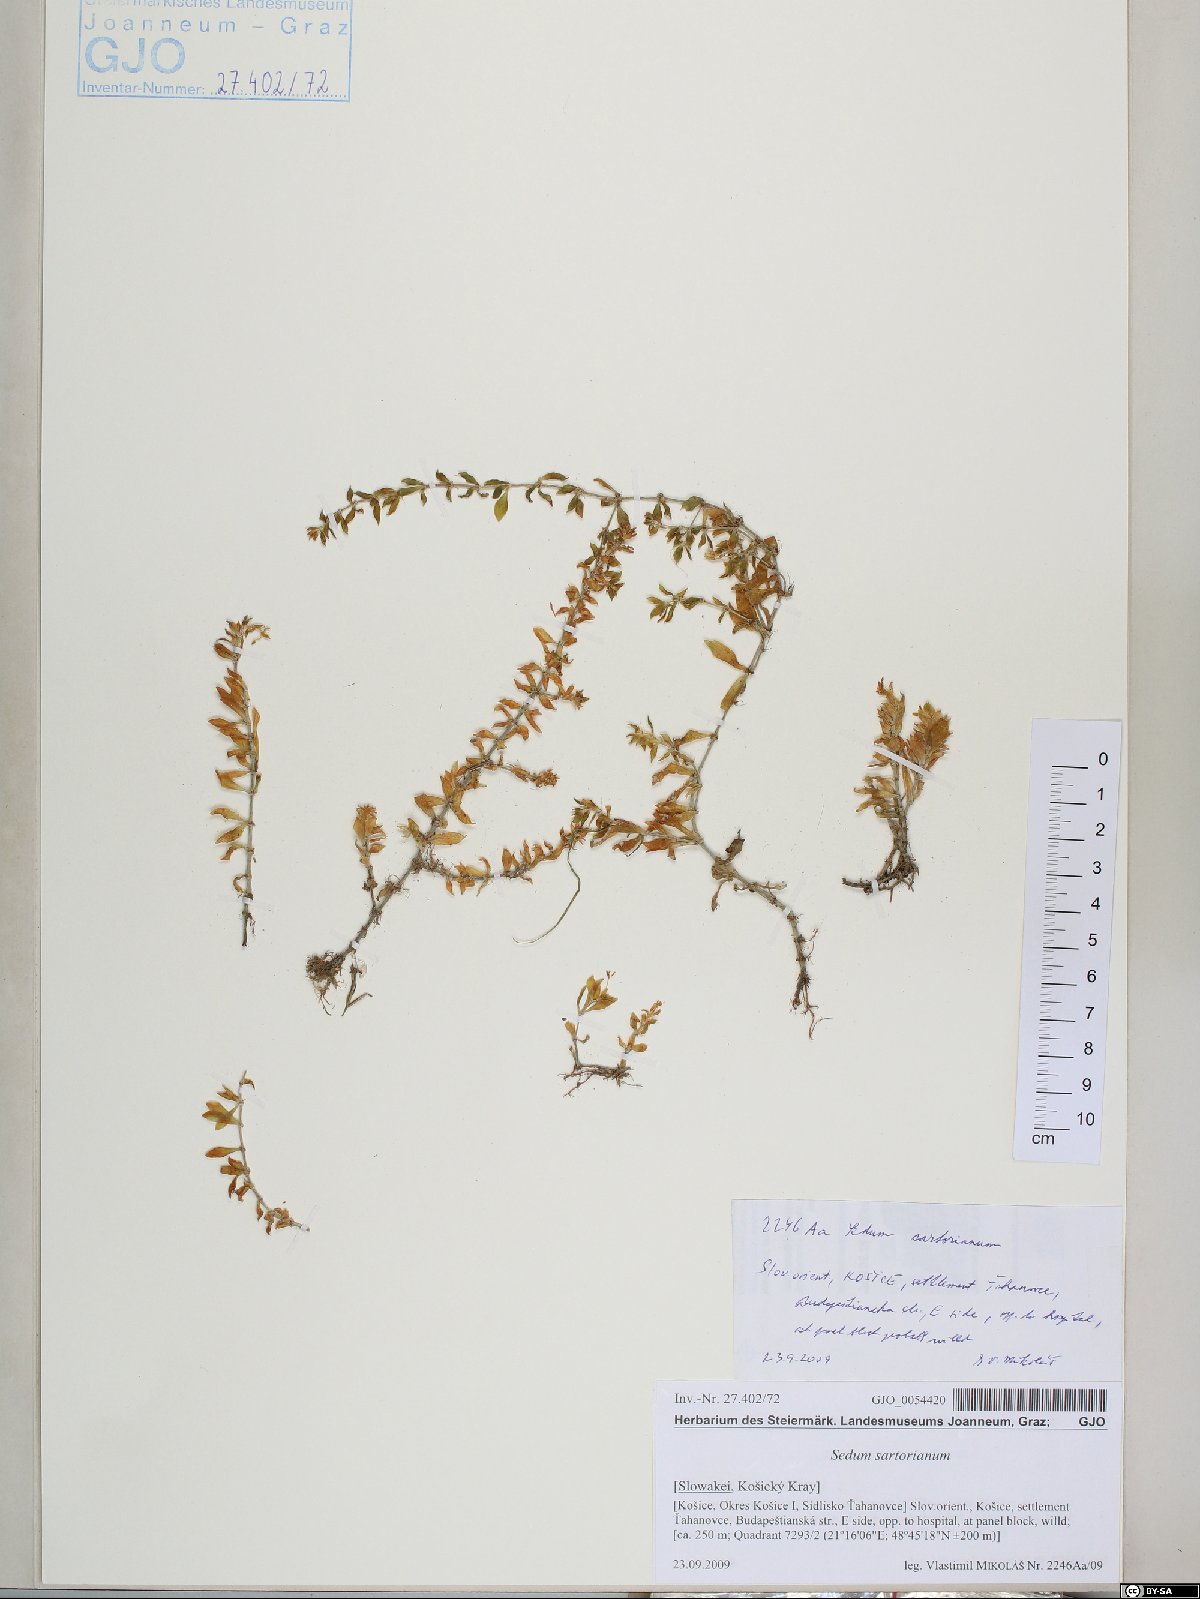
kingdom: Plantae
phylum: Tracheophyta
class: Magnoliopsida
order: Saxifragales
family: Crassulaceae
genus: Sedum
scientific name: Sedum urvillei
